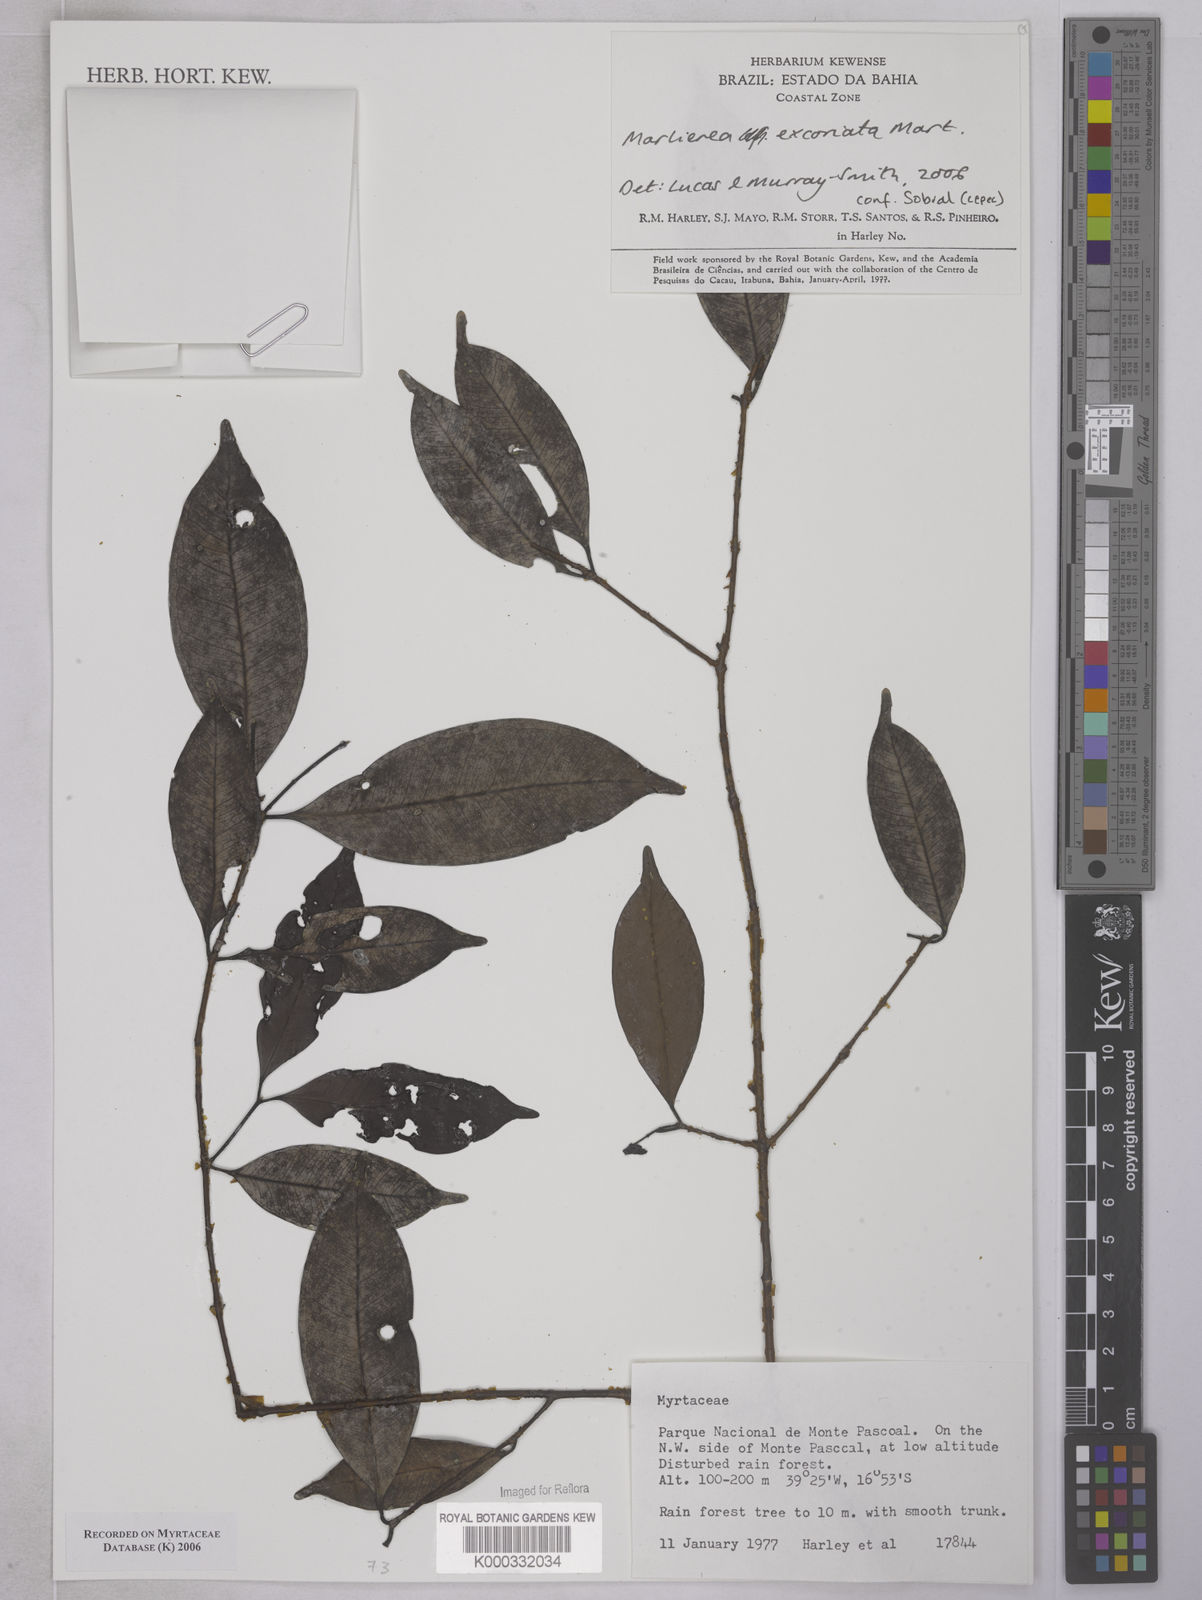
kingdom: Plantae
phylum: Tracheophyta
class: Magnoliopsida
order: Myrtales
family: Myrtaceae
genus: Myrcia
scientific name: Myrcia excoriata
